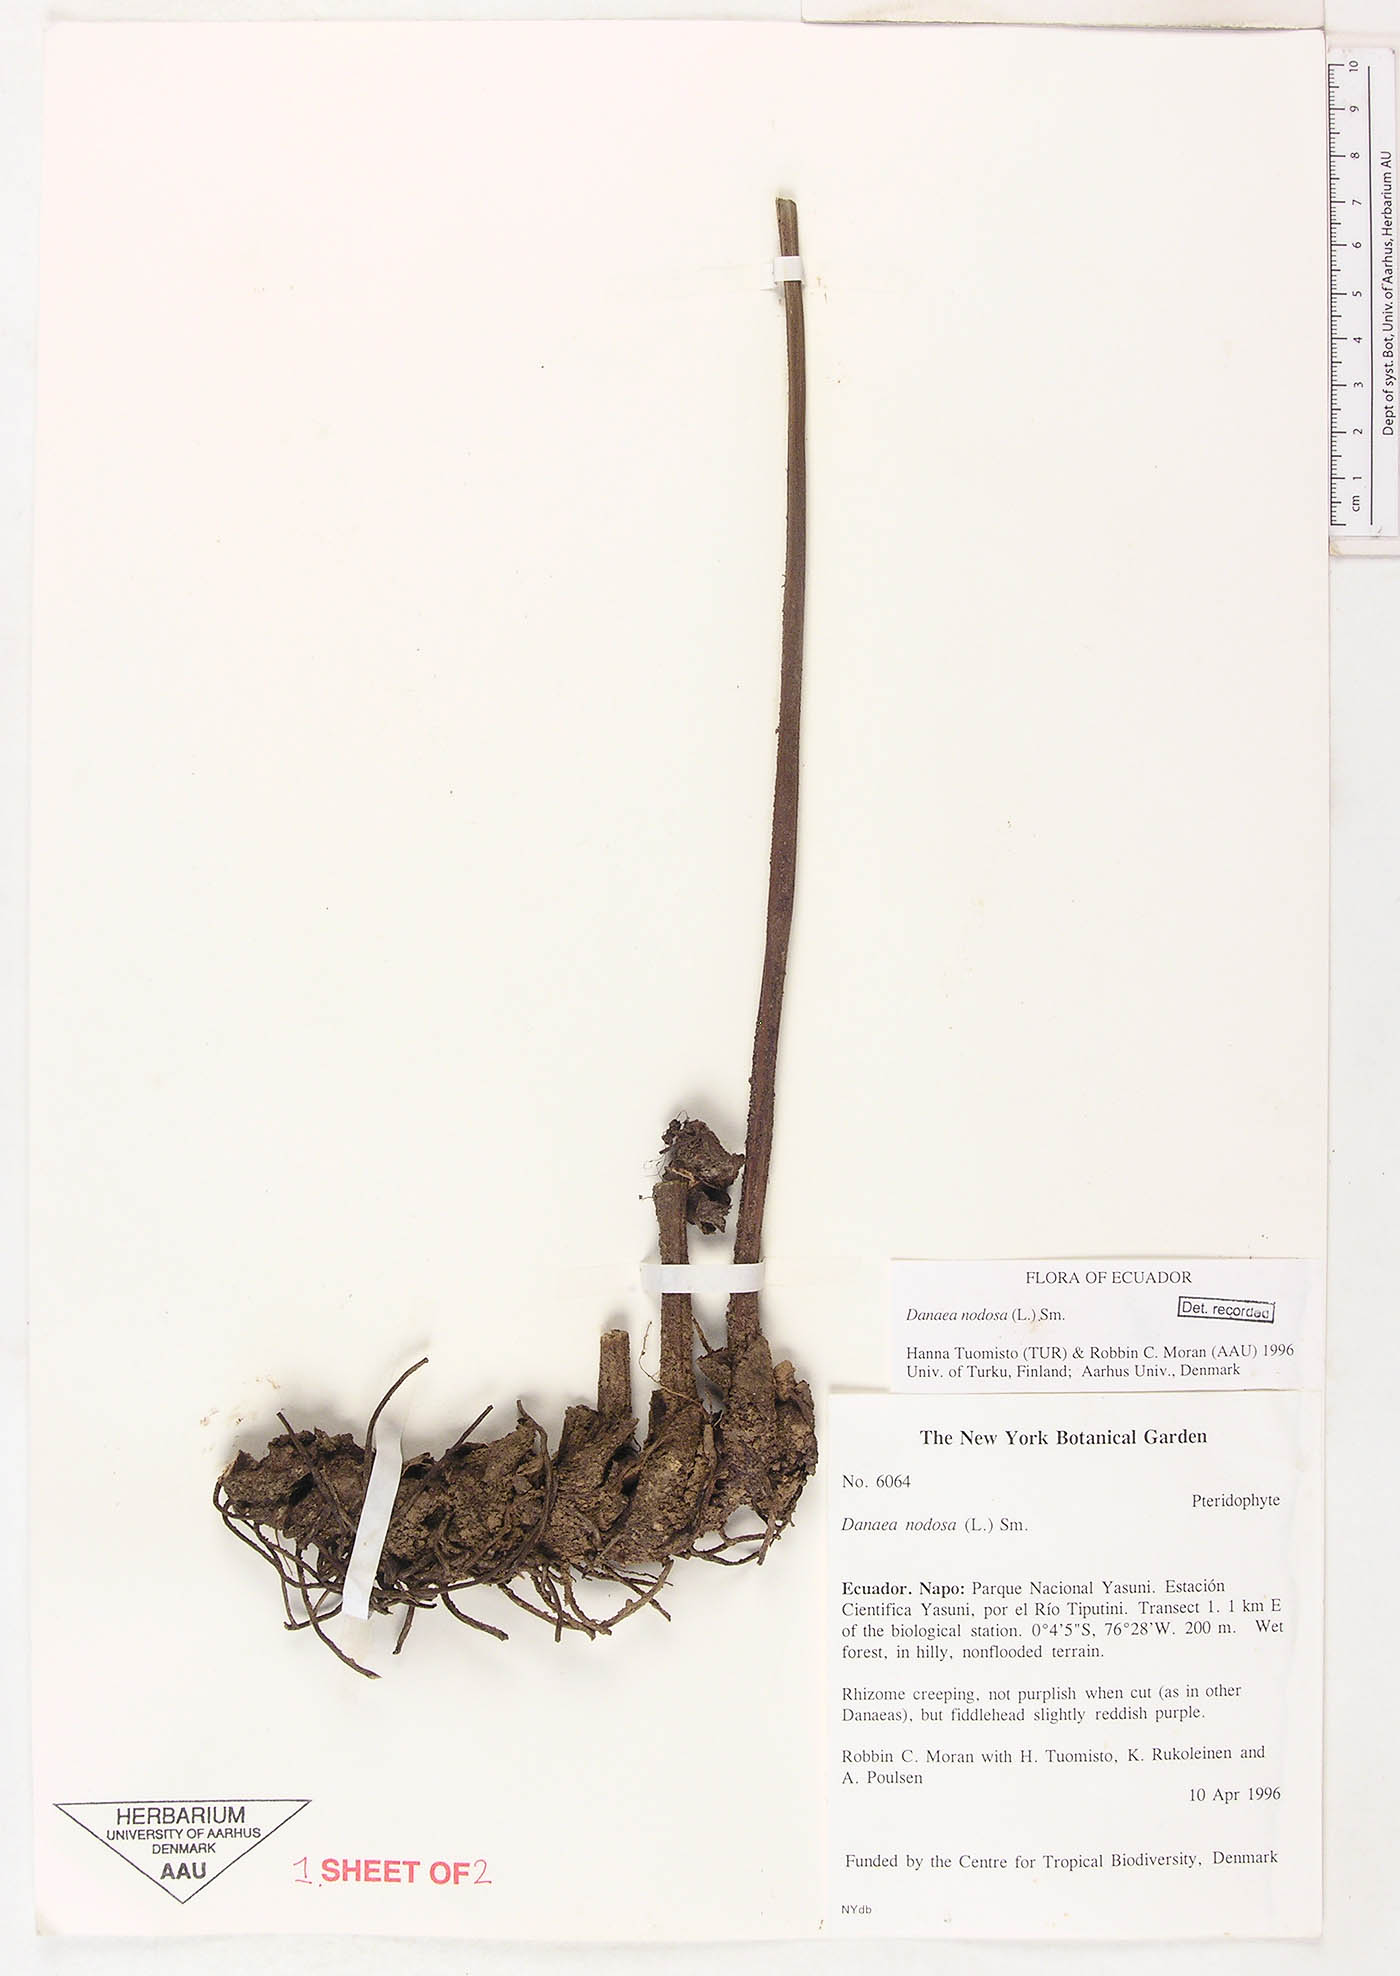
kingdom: Plantae
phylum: Tracheophyta
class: Polypodiopsida
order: Marattiales
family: Marattiaceae
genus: Danaea
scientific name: Danaea nodosa
